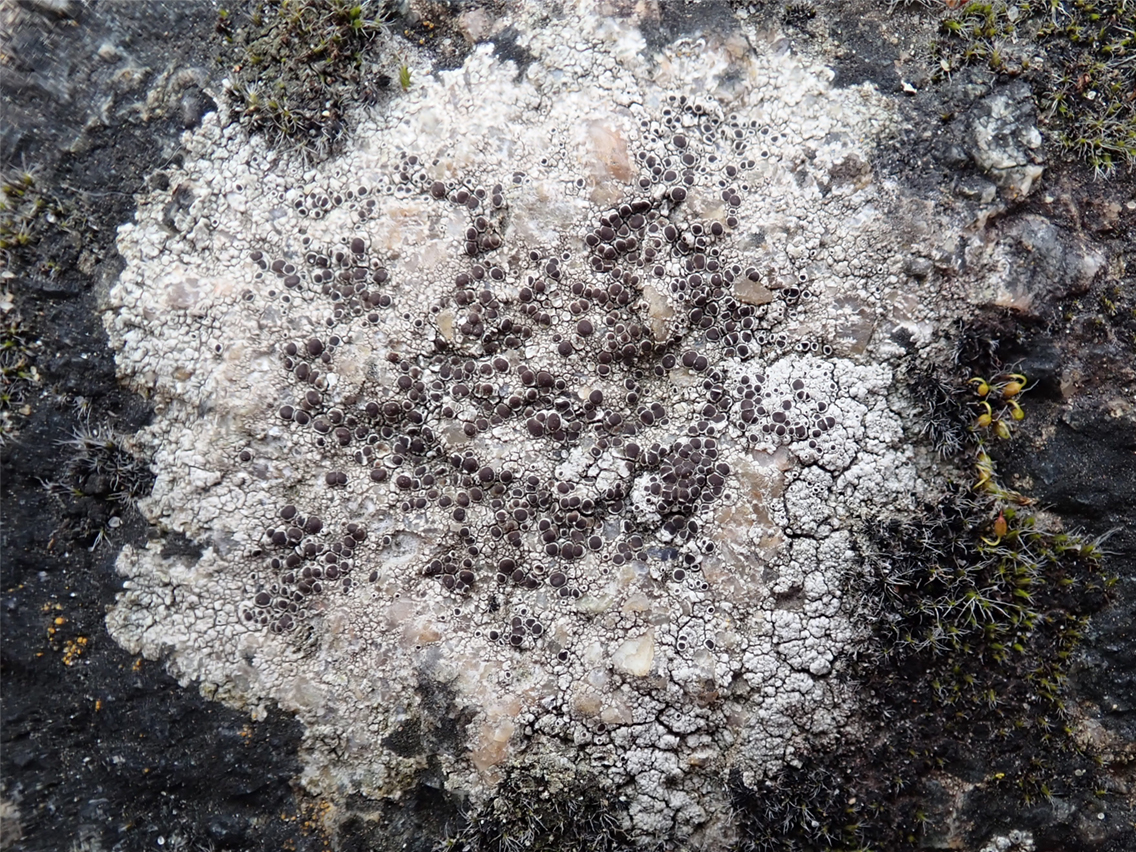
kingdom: Fungi
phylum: Ascomycota
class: Lecanoromycetes
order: Lecanorales
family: Lecanoraceae
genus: Lecanora
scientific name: Lecanora campestris
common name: mur-kantskivelav
